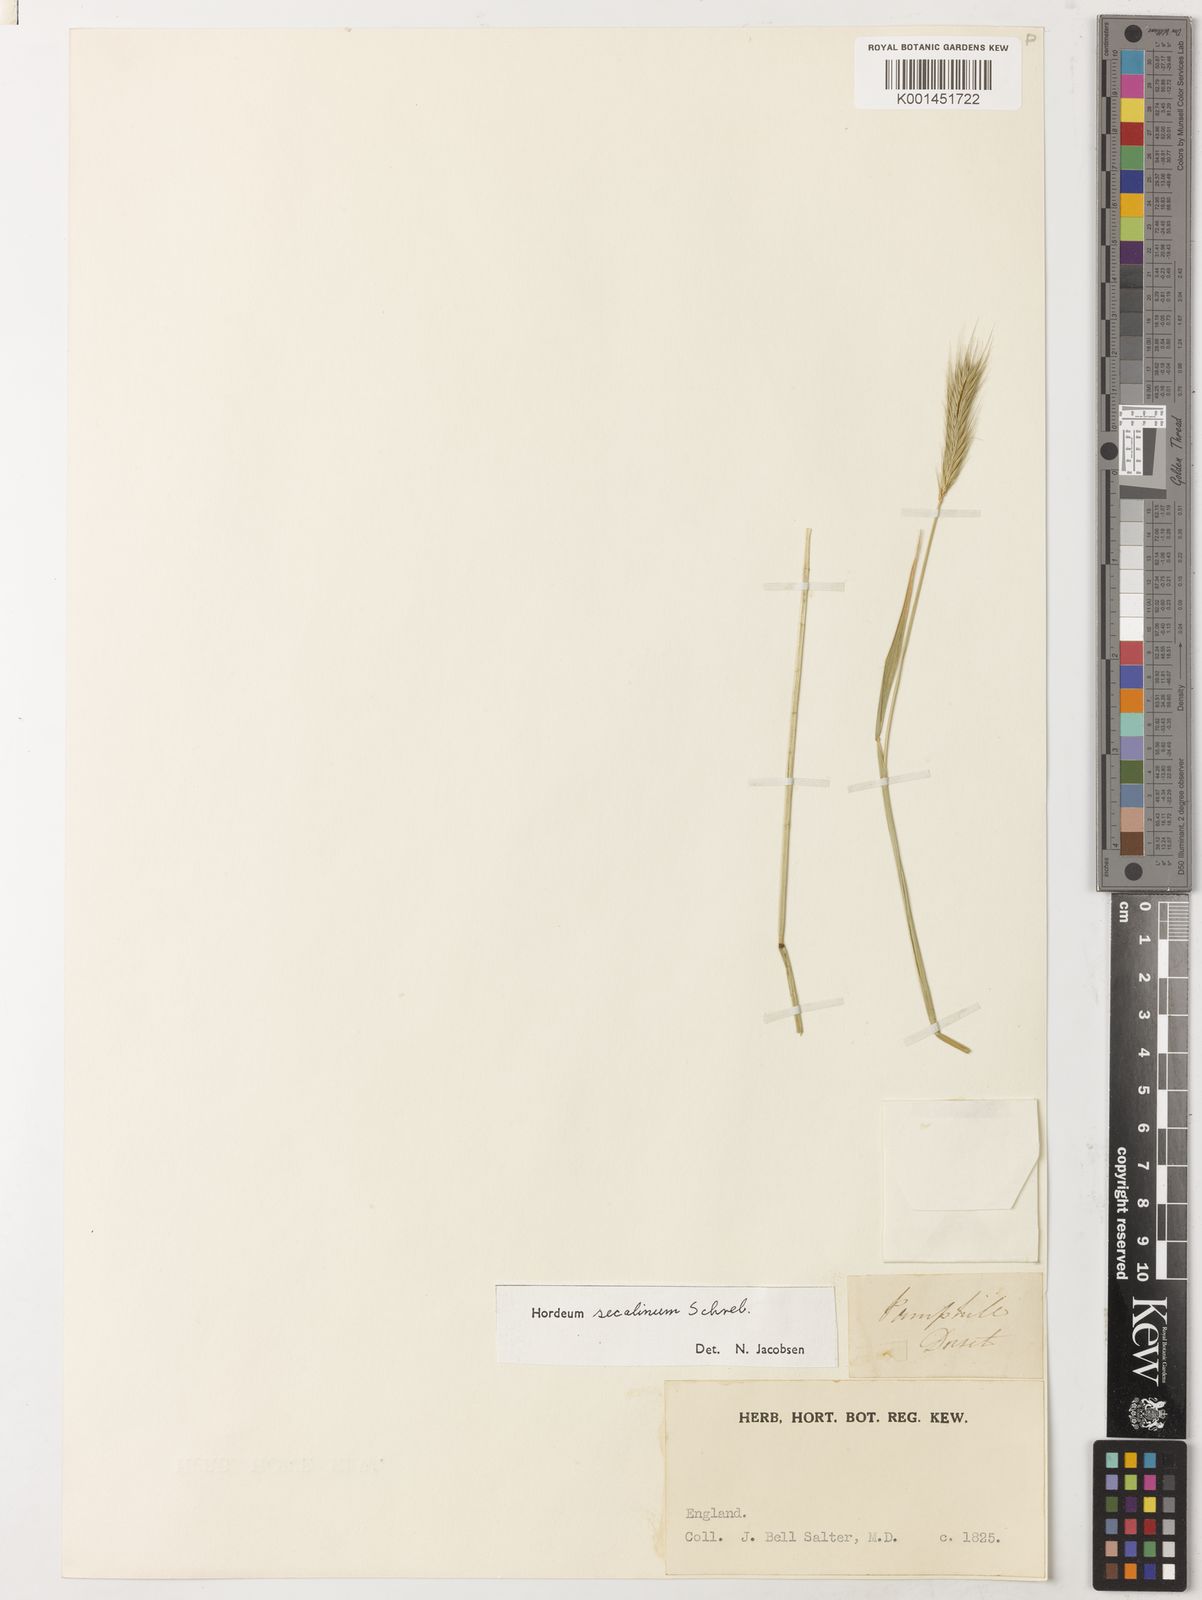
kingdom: Plantae
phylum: Tracheophyta
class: Liliopsida
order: Poales
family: Poaceae
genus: Hordeum
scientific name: Hordeum secalinum
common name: Meadow barley
